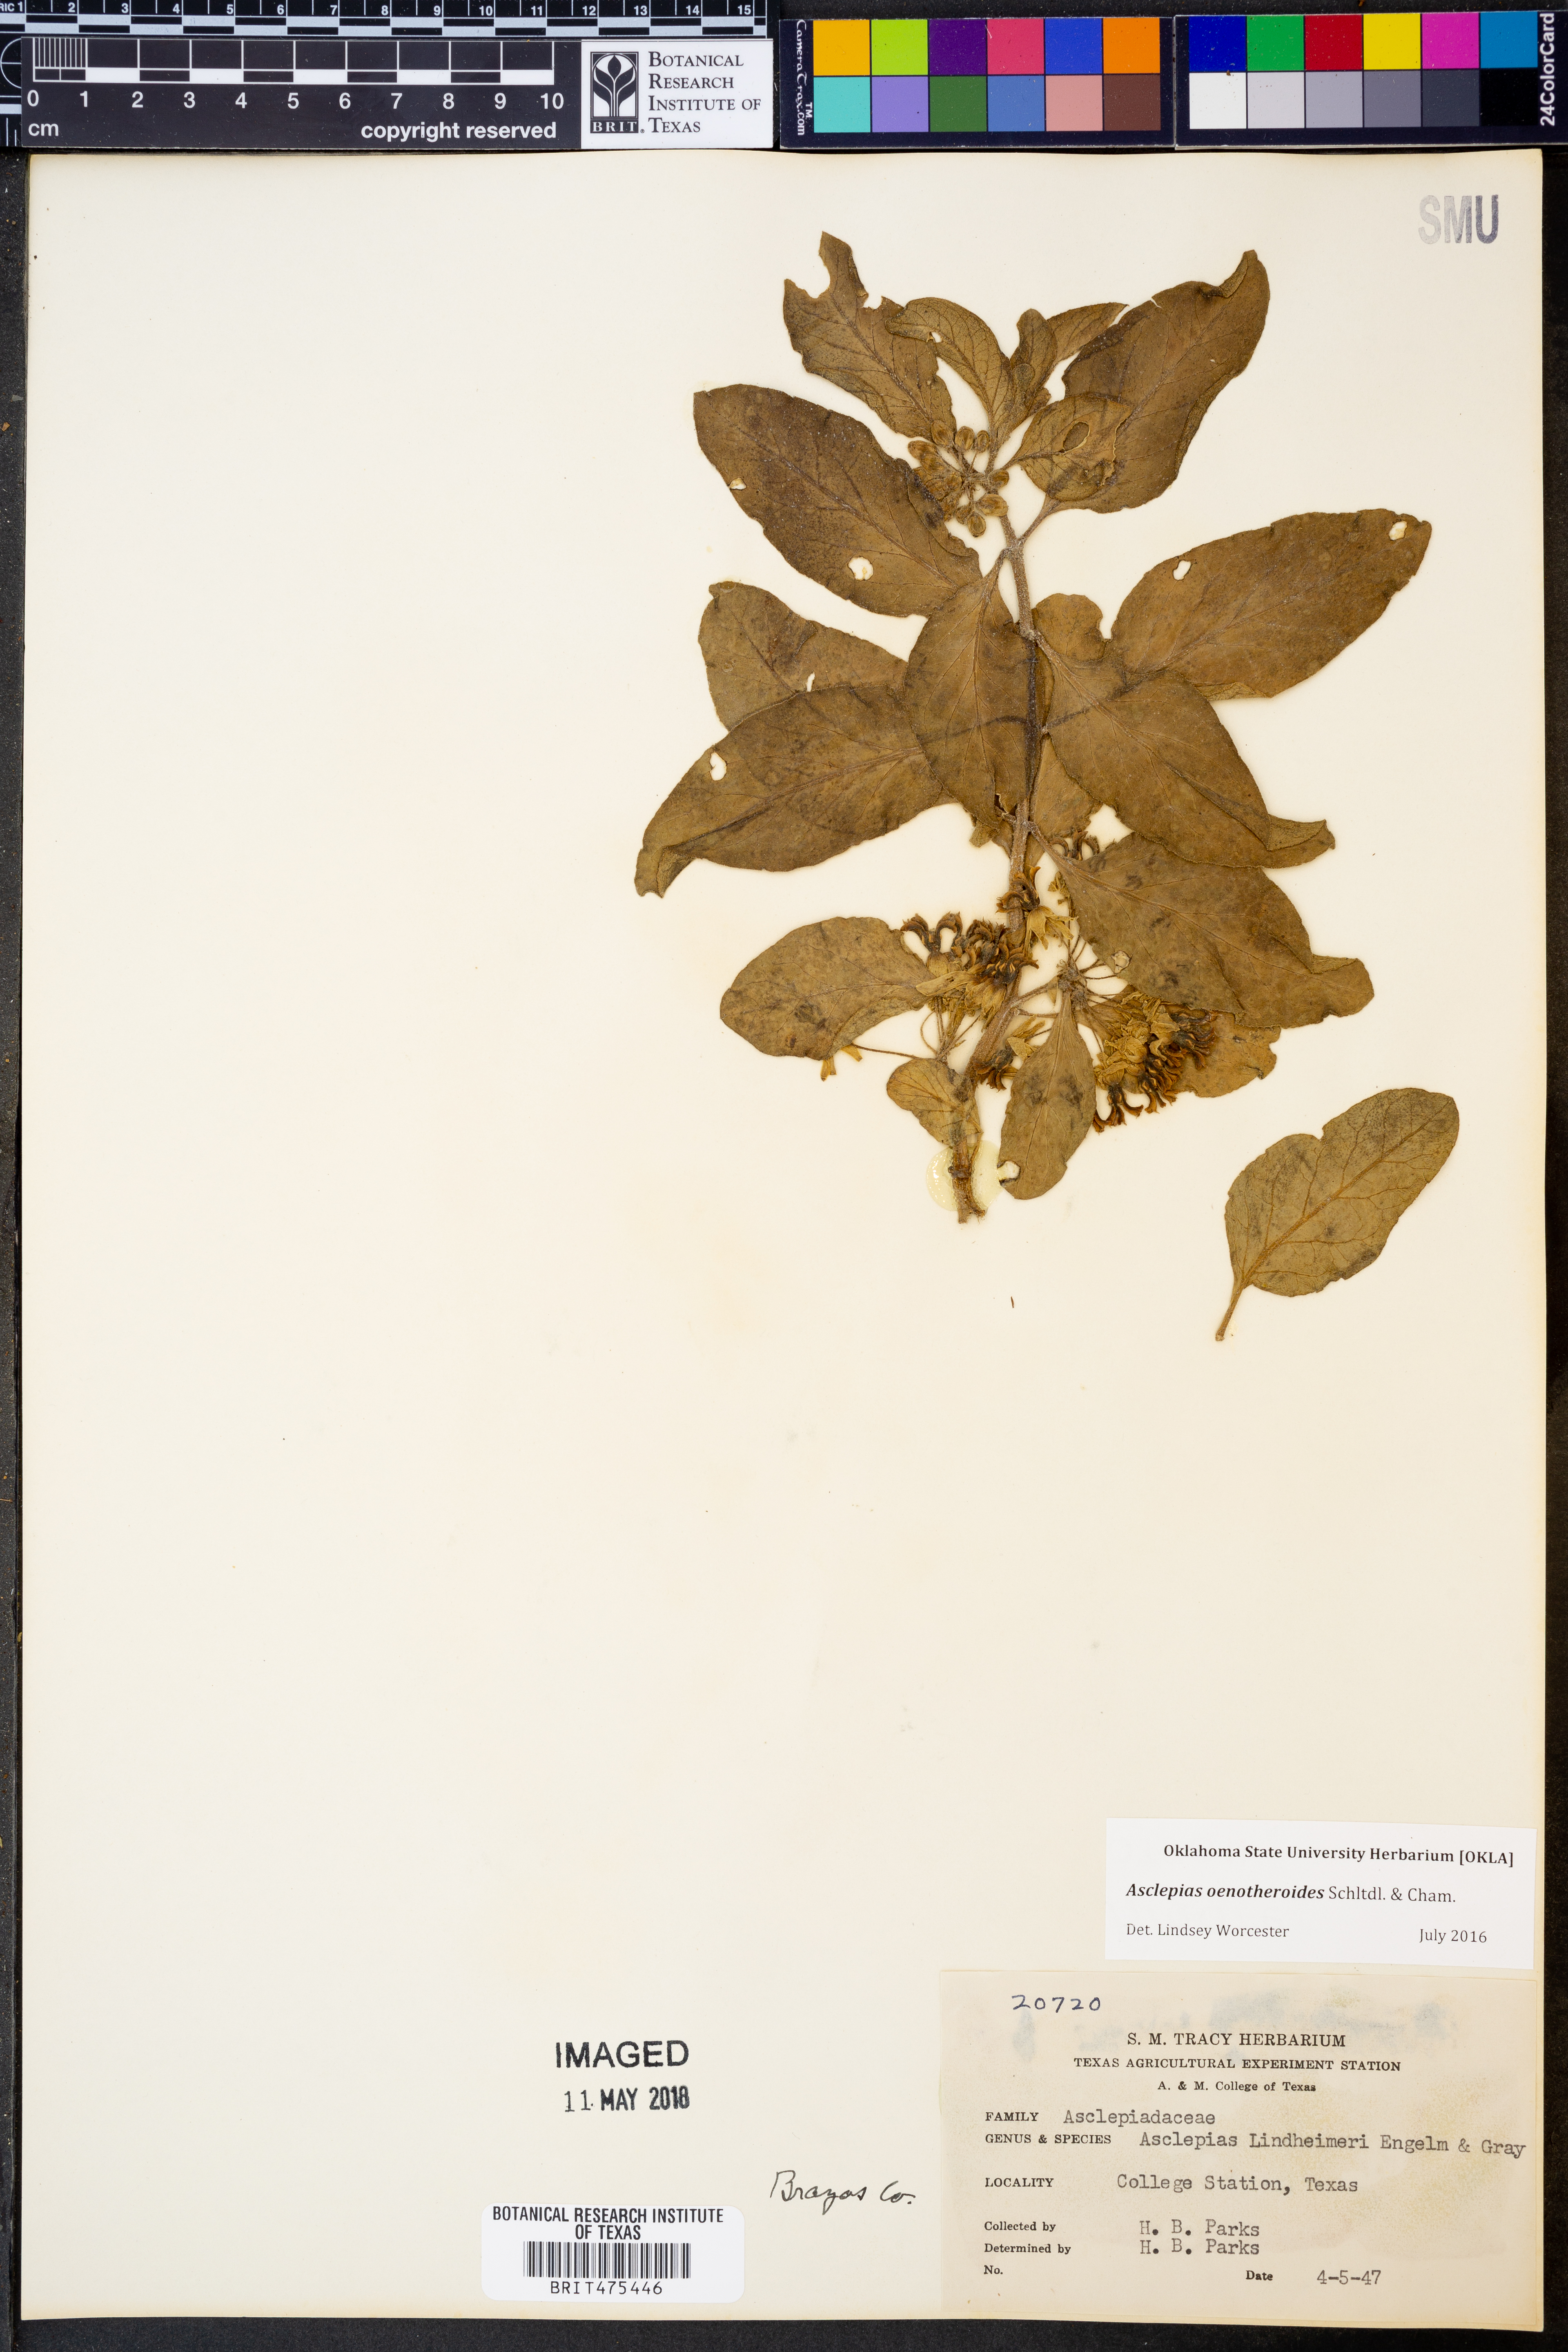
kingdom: Plantae
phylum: Tracheophyta
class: Magnoliopsida
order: Gentianales
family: Apocynaceae
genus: Asclepias
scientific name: Asclepias oenotheroides
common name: Zizotes milkweed
